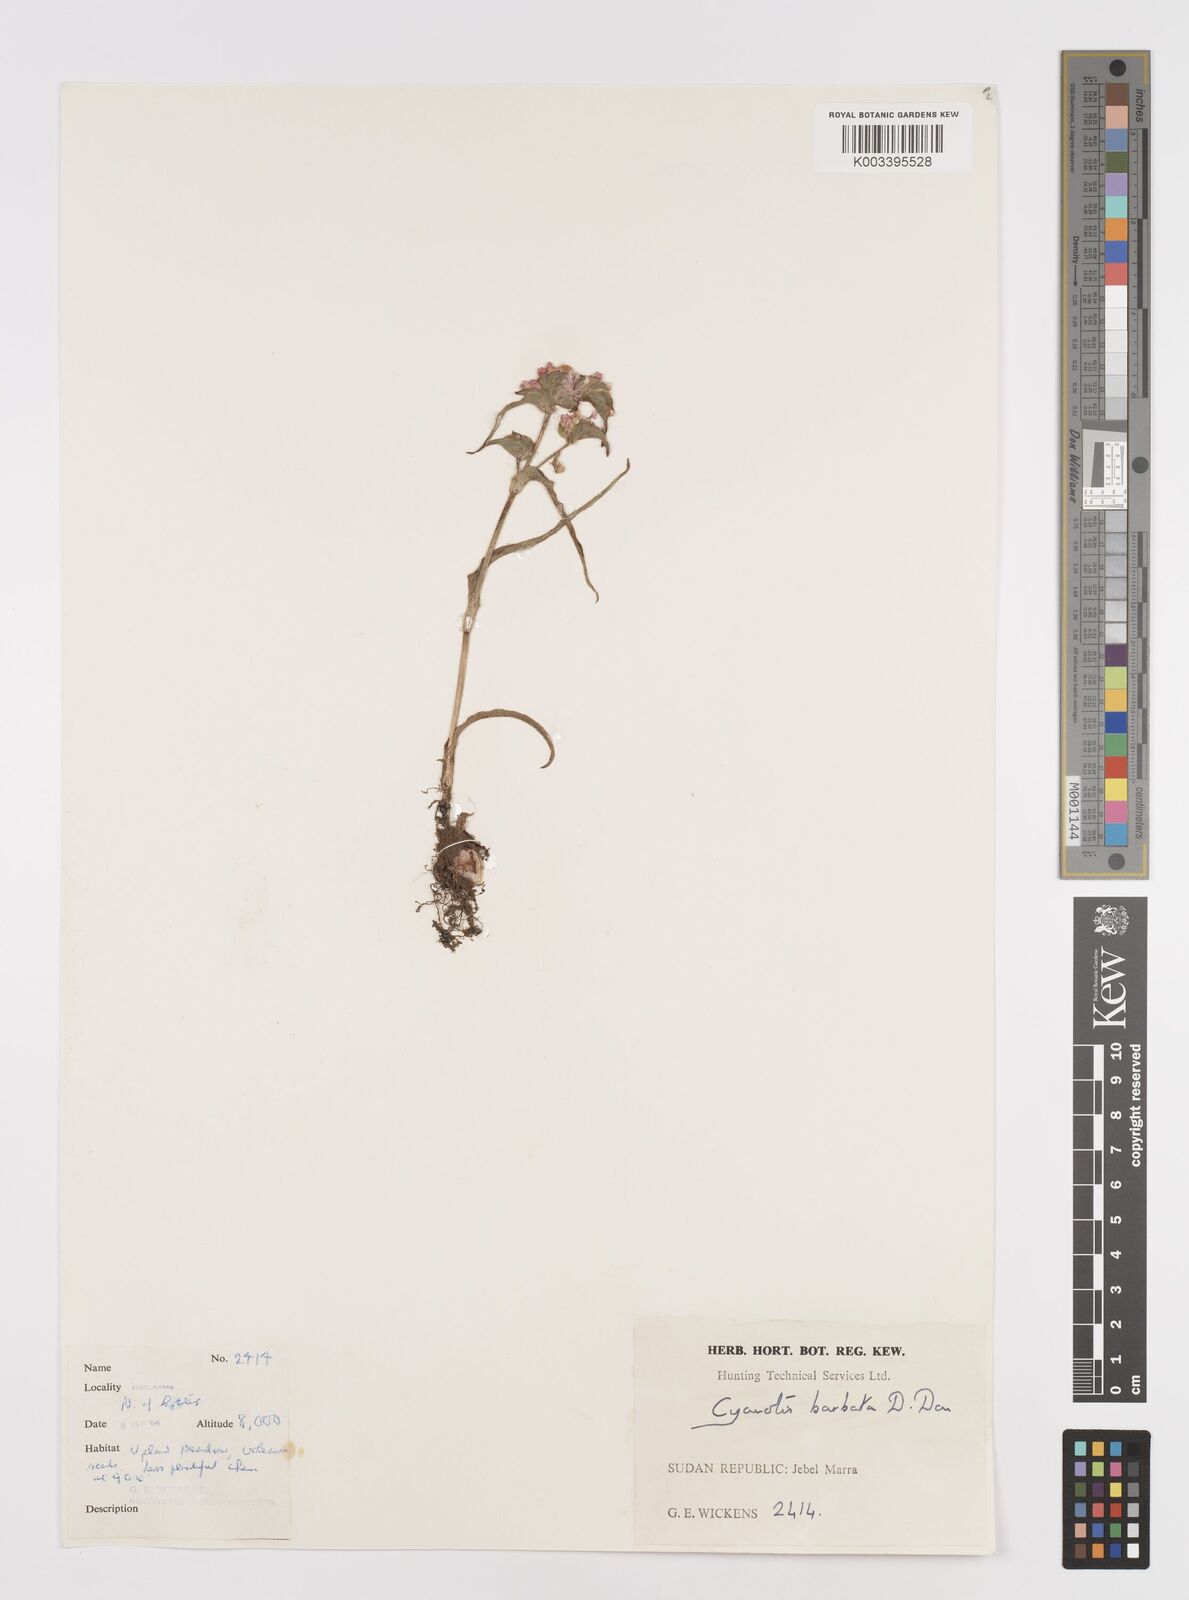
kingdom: Plantae
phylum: Tracheophyta
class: Liliopsida
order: Commelinales
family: Commelinaceae
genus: Cyanotis
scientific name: Cyanotis vaga
